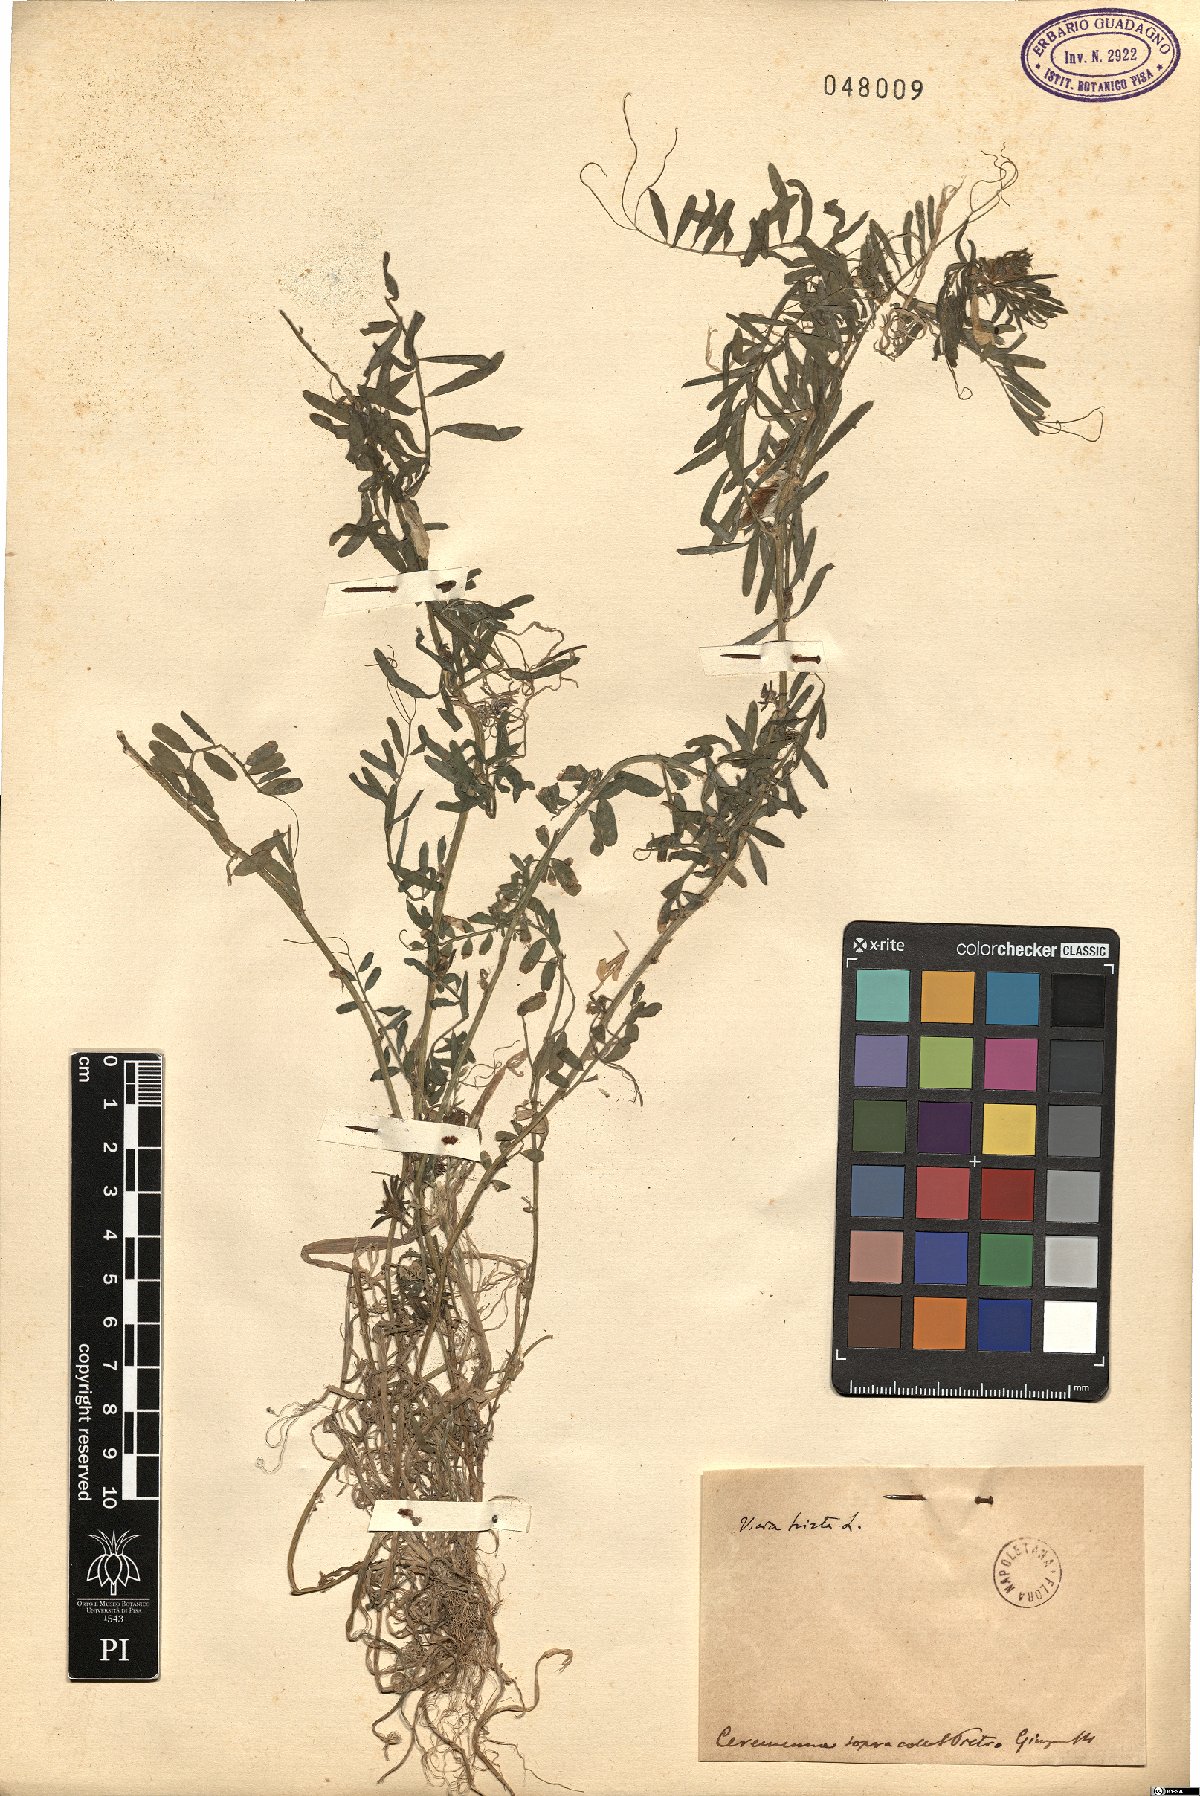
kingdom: Plantae
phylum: Tracheophyta
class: Magnoliopsida
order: Fabales
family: Fabaceae
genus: Vicia
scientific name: Vicia lutea
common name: Smooth yellow vetch
